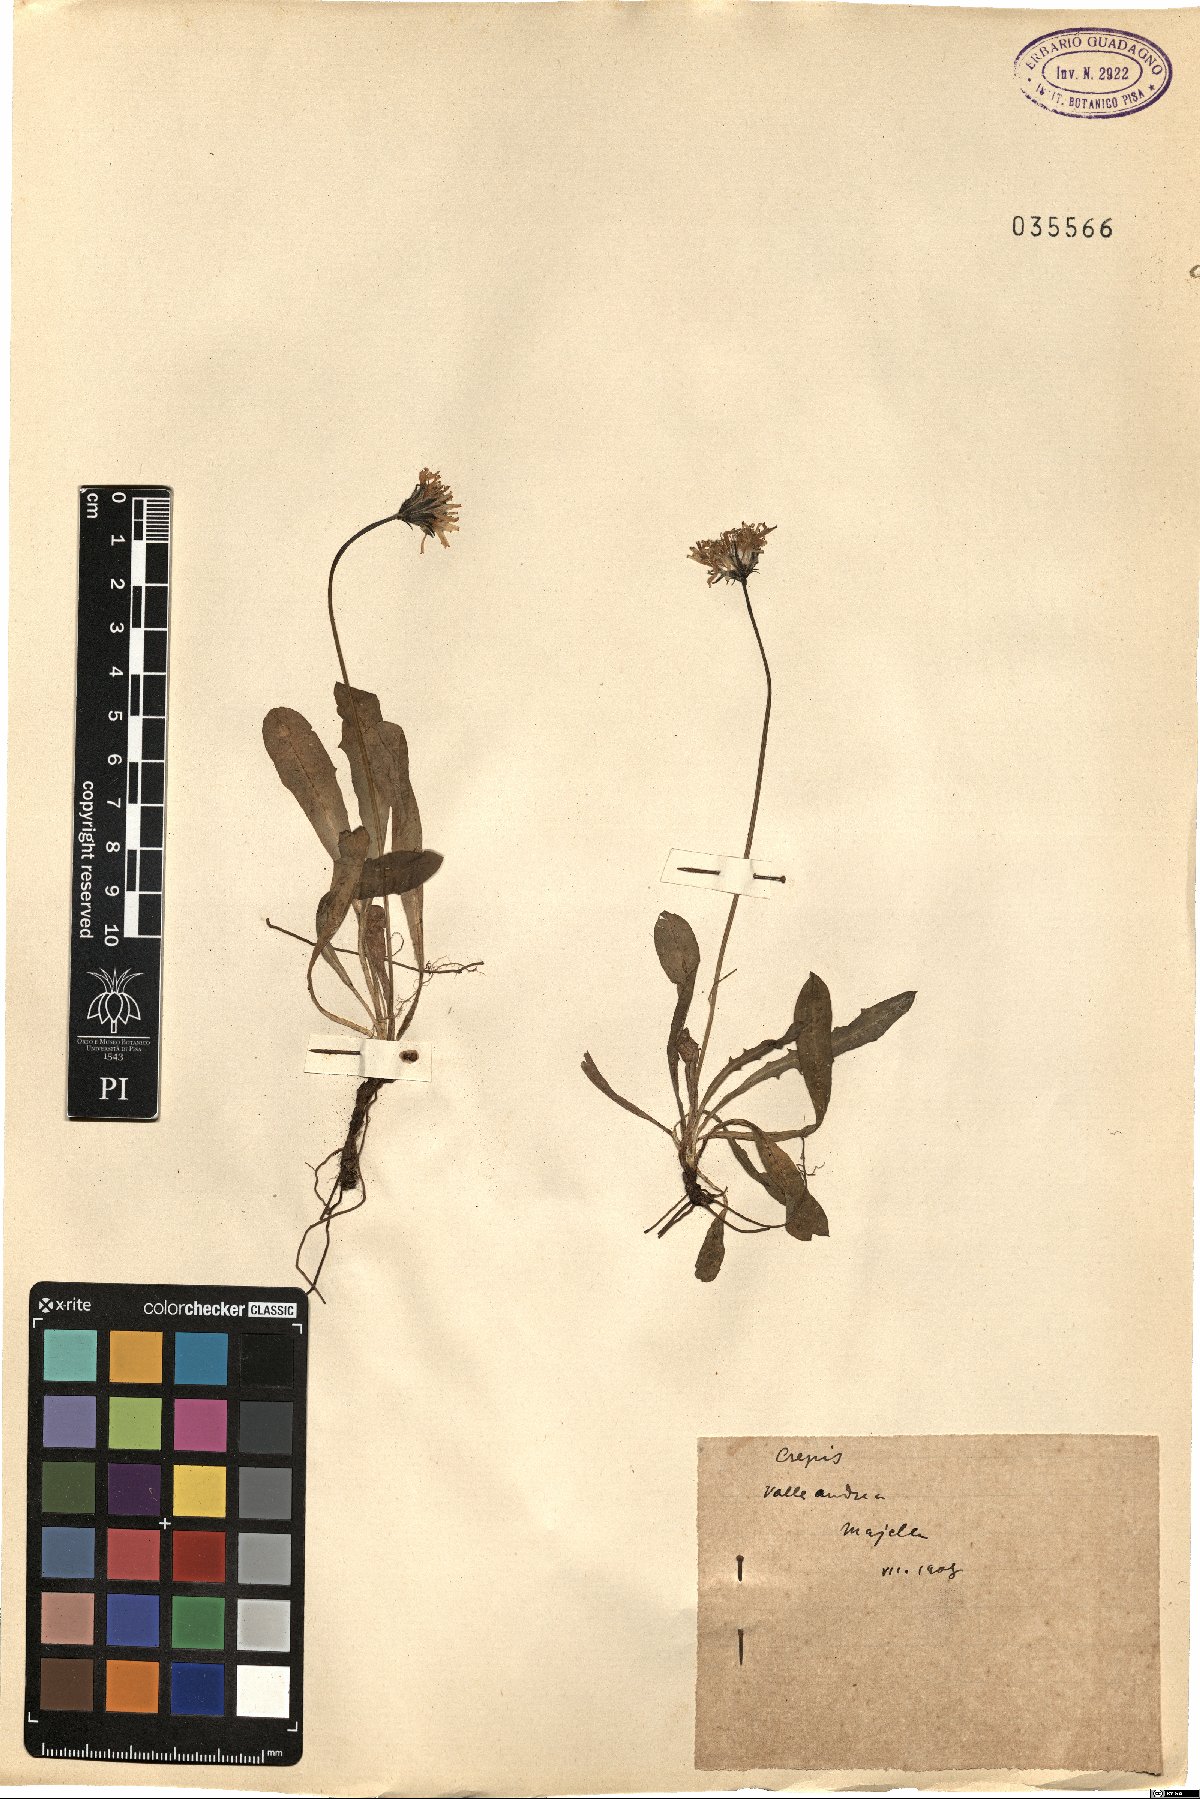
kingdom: Plantae
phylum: Tracheophyta
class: Magnoliopsida
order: Asterales
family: Asteraceae
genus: Crepis
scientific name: Crepis
